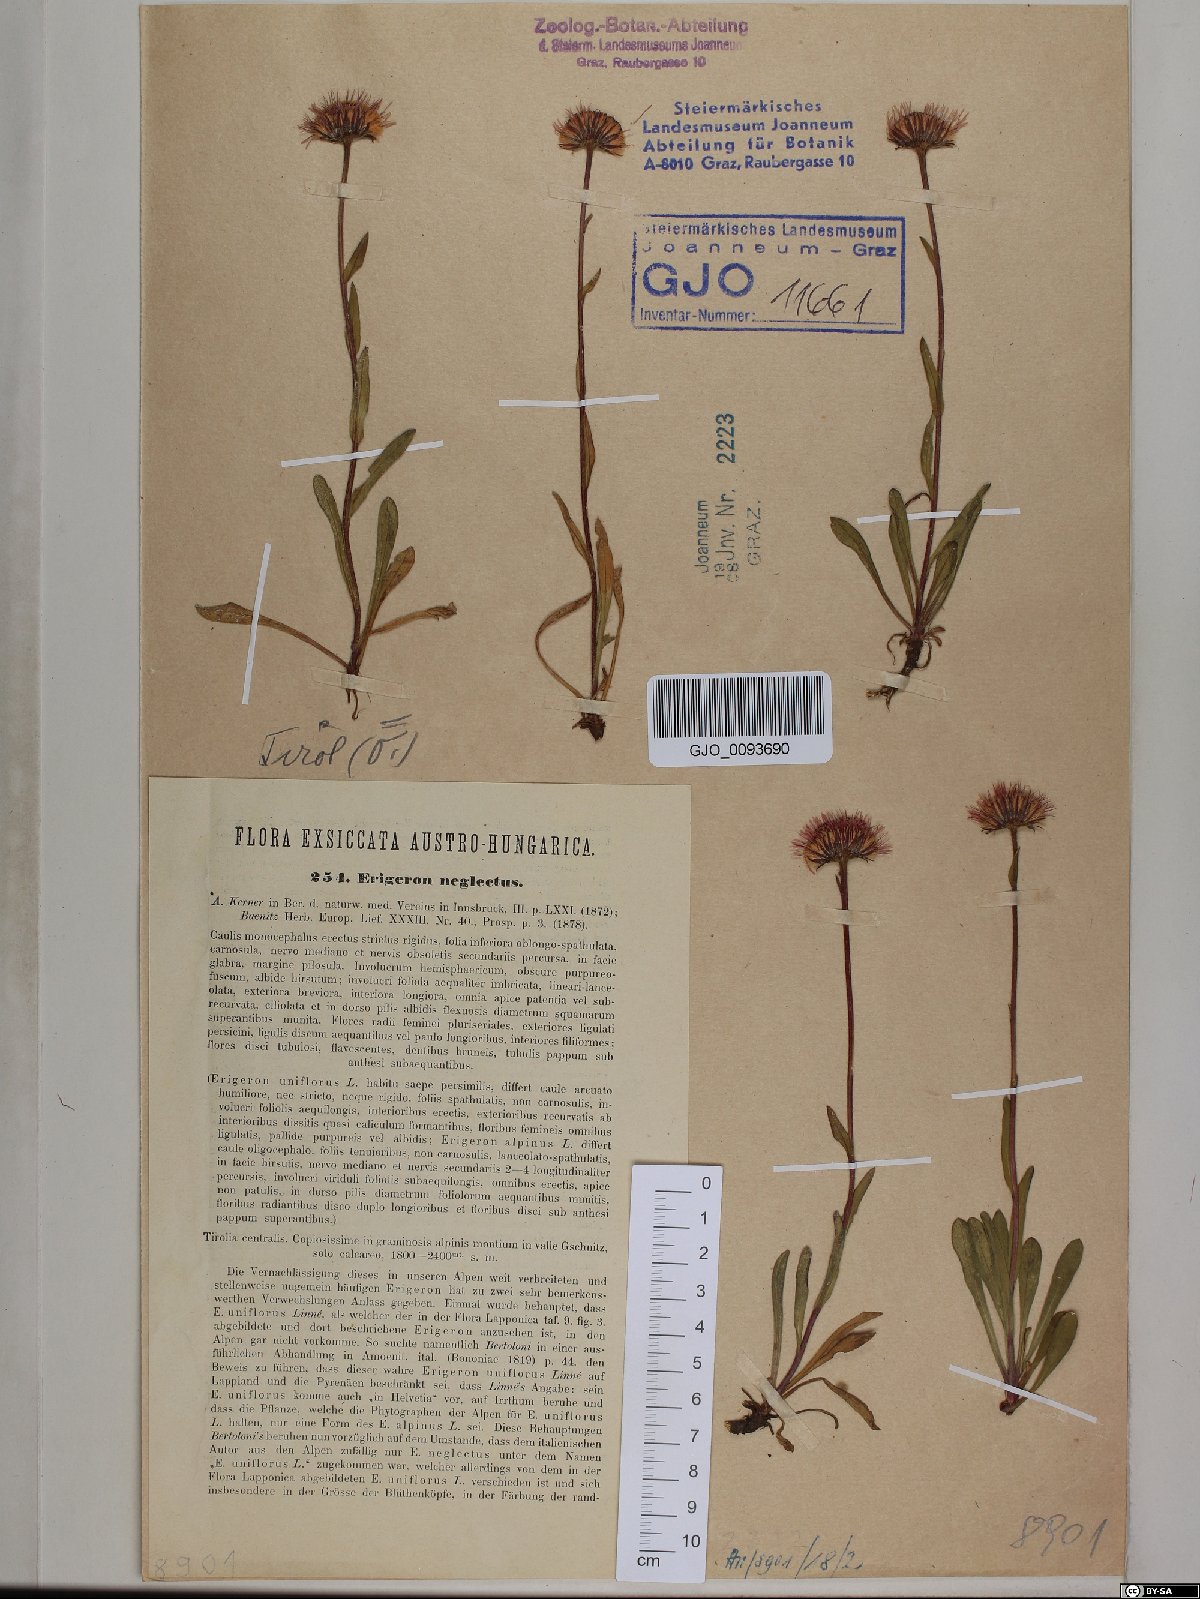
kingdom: Plantae
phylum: Tracheophyta
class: Magnoliopsida
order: Asterales
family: Asteraceae
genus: Erigeron
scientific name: Erigeron neglectus
